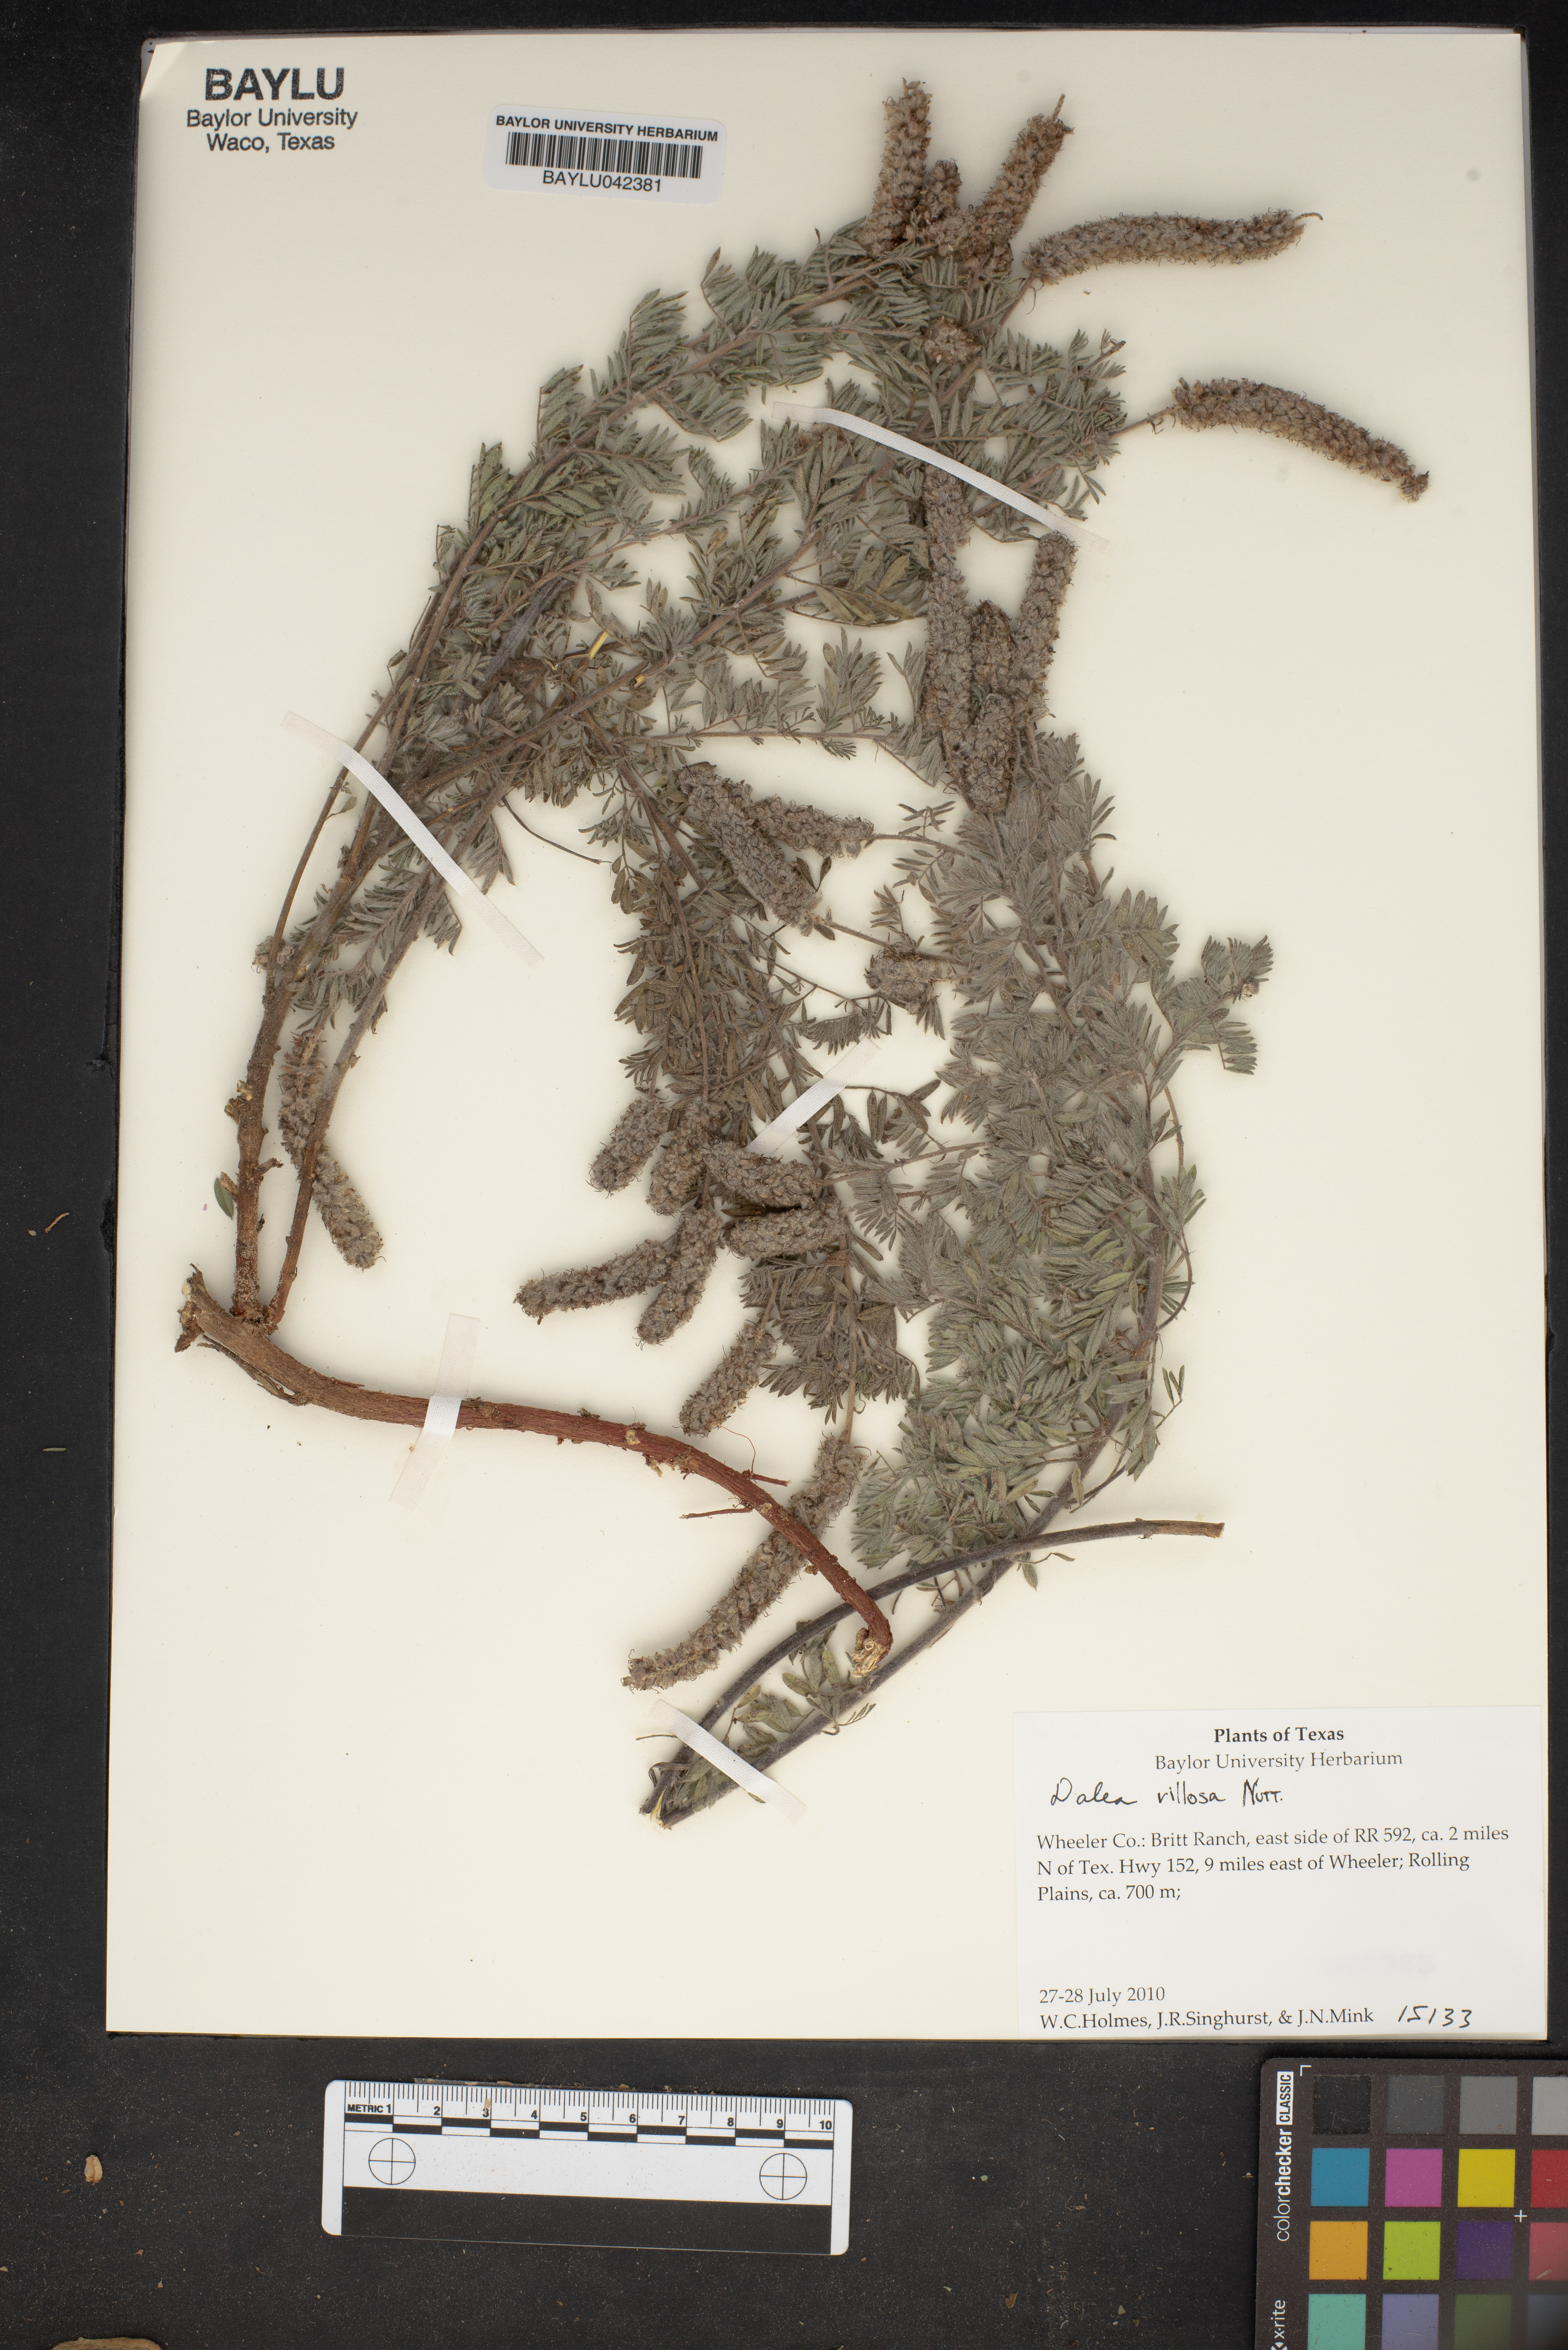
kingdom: Plantae
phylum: Tracheophyta
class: Magnoliopsida
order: Fabales
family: Fabaceae
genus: Dalea
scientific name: Dalea villosa
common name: Silky prairie-clover
